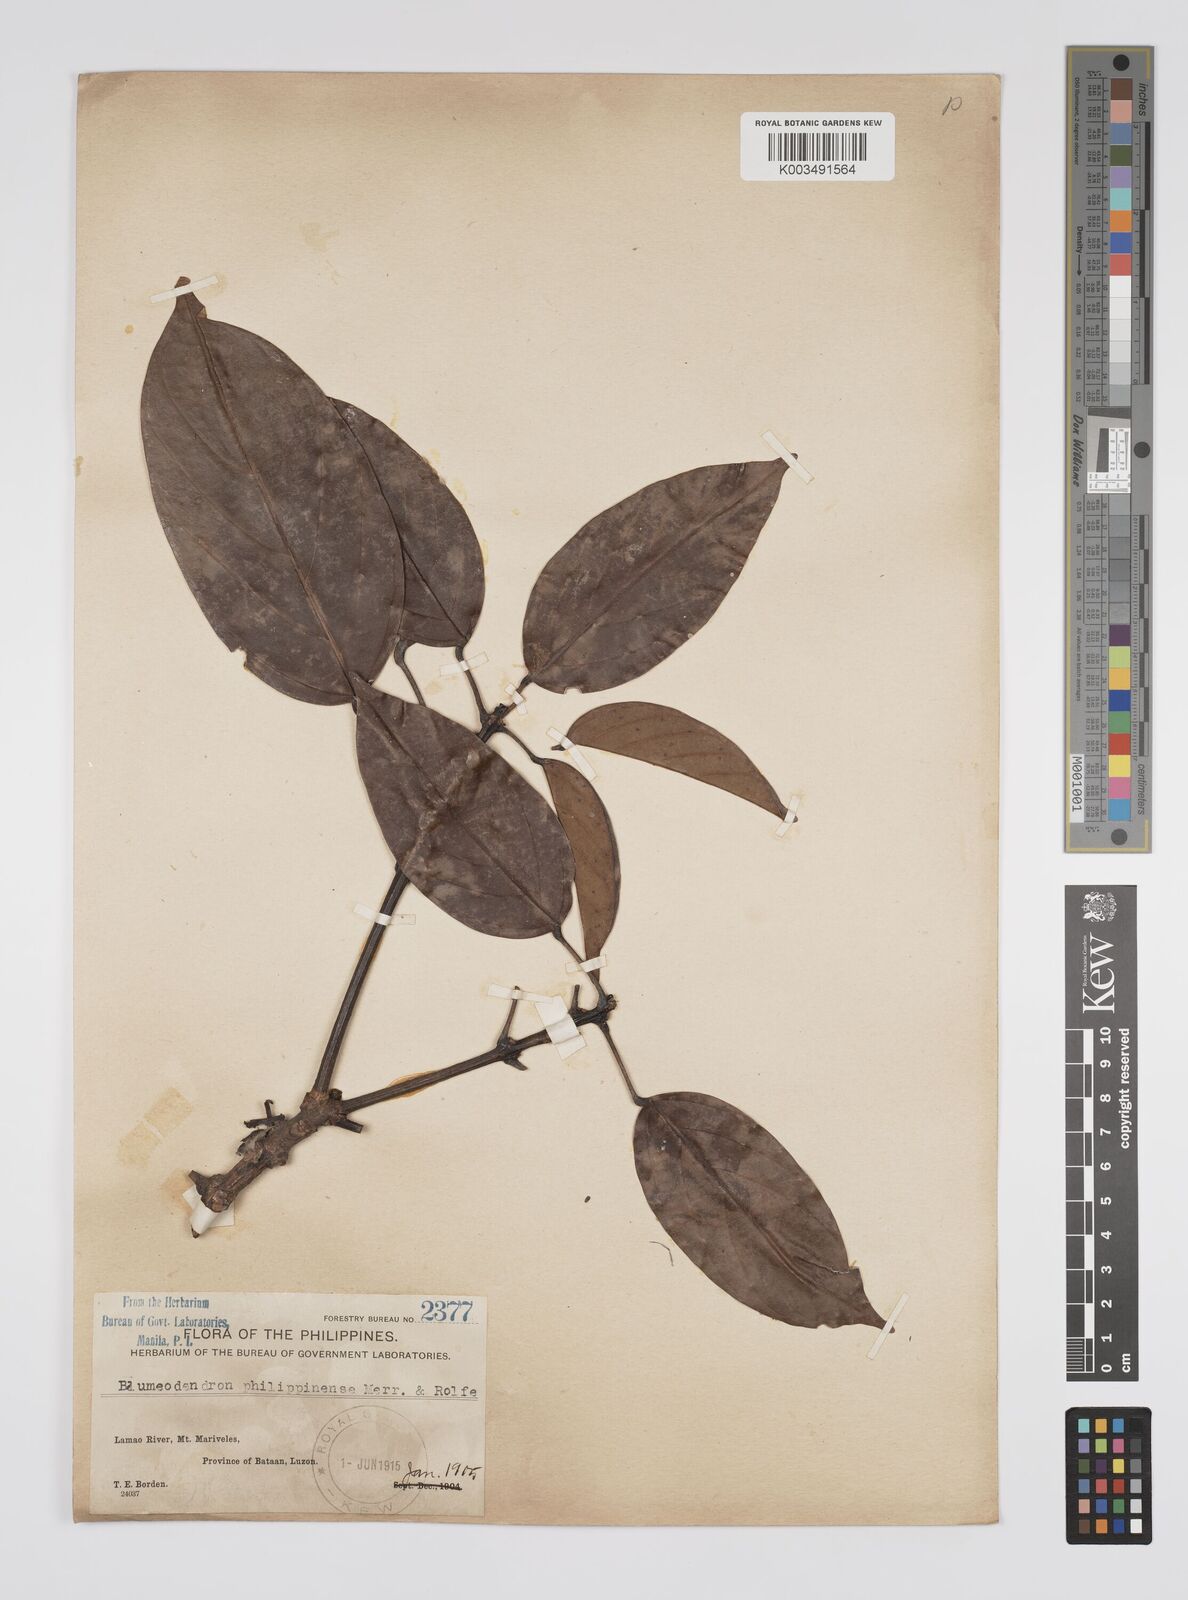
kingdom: Plantae
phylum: Tracheophyta
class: Magnoliopsida
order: Malpighiales
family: Euphorbiaceae
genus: Blumeodendron
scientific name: Blumeodendron philippinense
